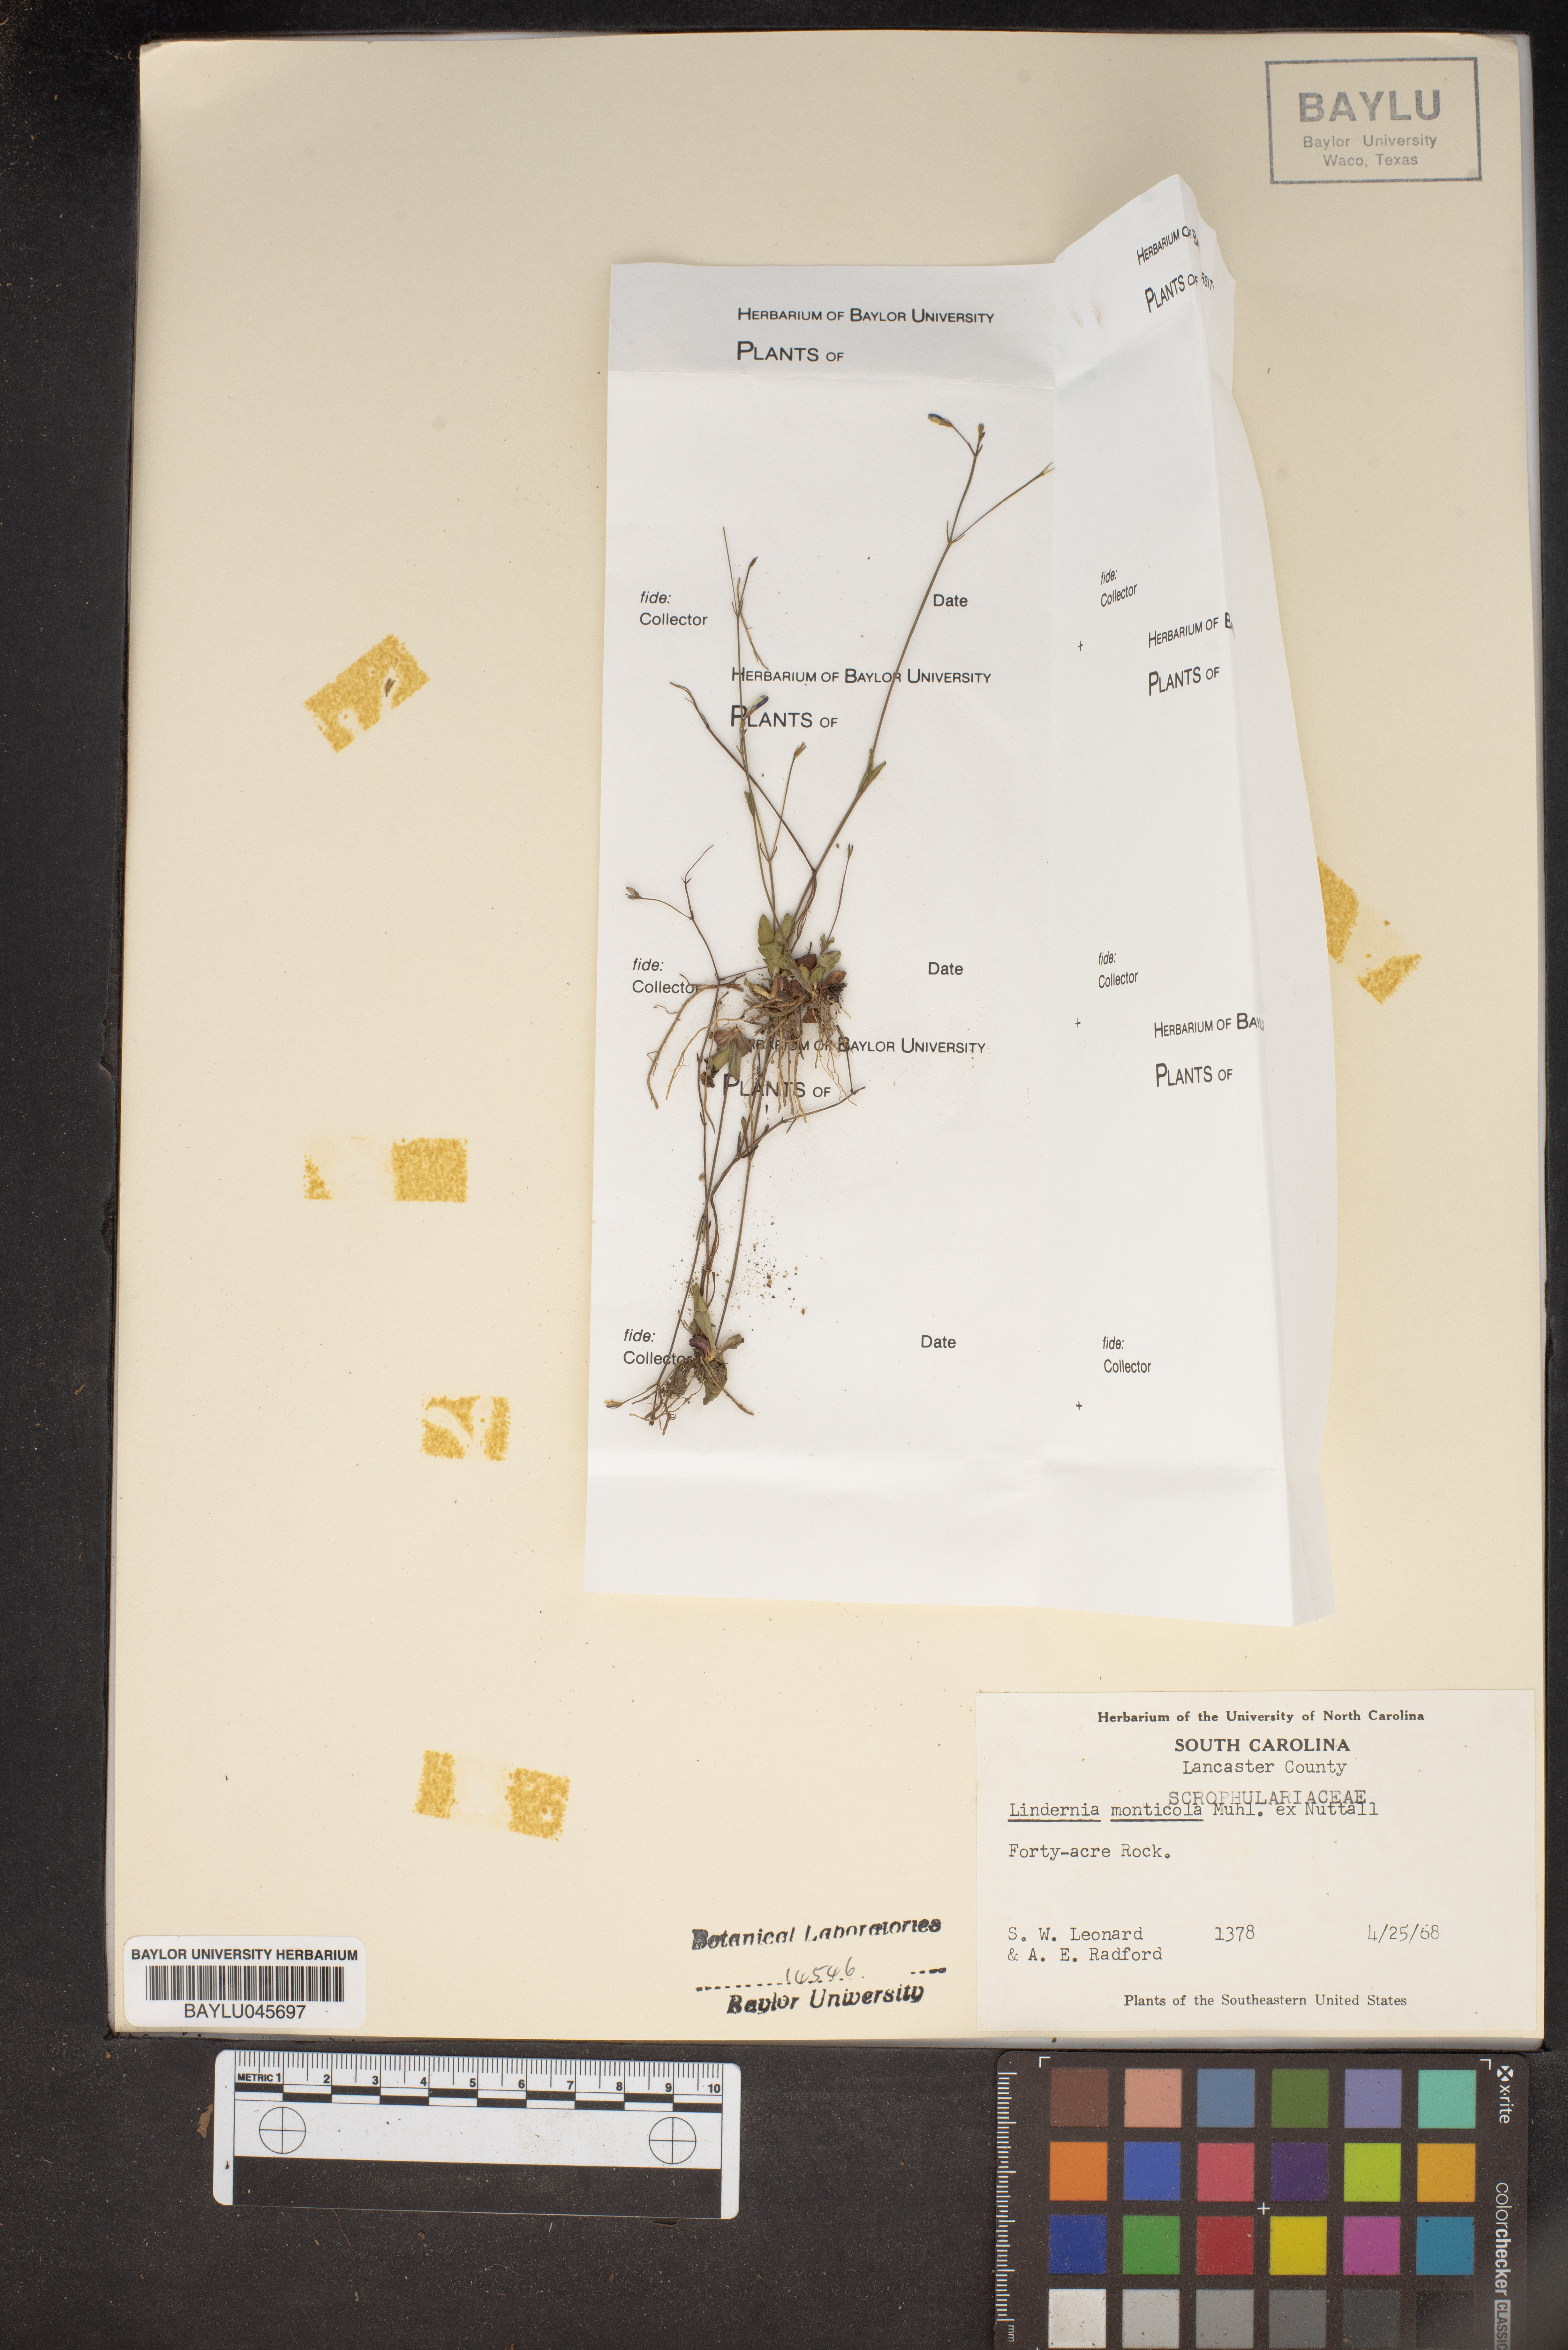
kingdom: Plantae
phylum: Tracheophyta
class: Magnoliopsida
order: Lamiales
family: Linderniaceae
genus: Lindernia
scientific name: Lindernia monticola
